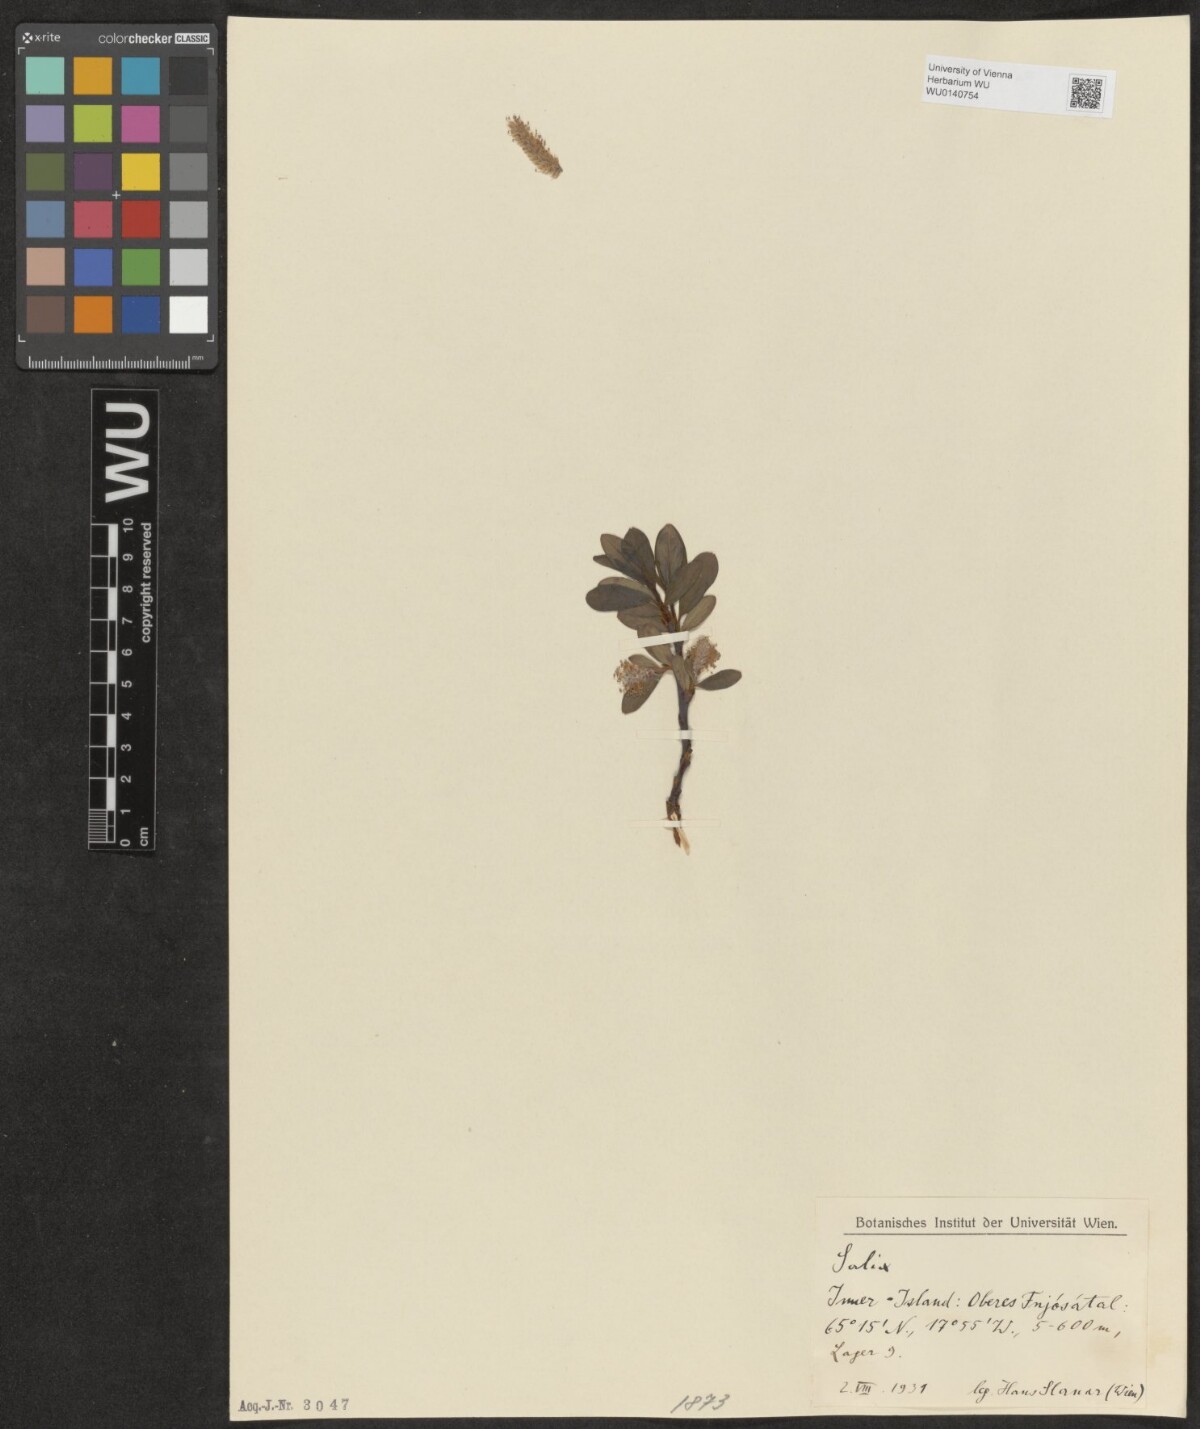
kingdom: Plantae
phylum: Tracheophyta
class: Magnoliopsida
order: Malpighiales
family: Salicaceae
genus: Salix
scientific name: Salix
